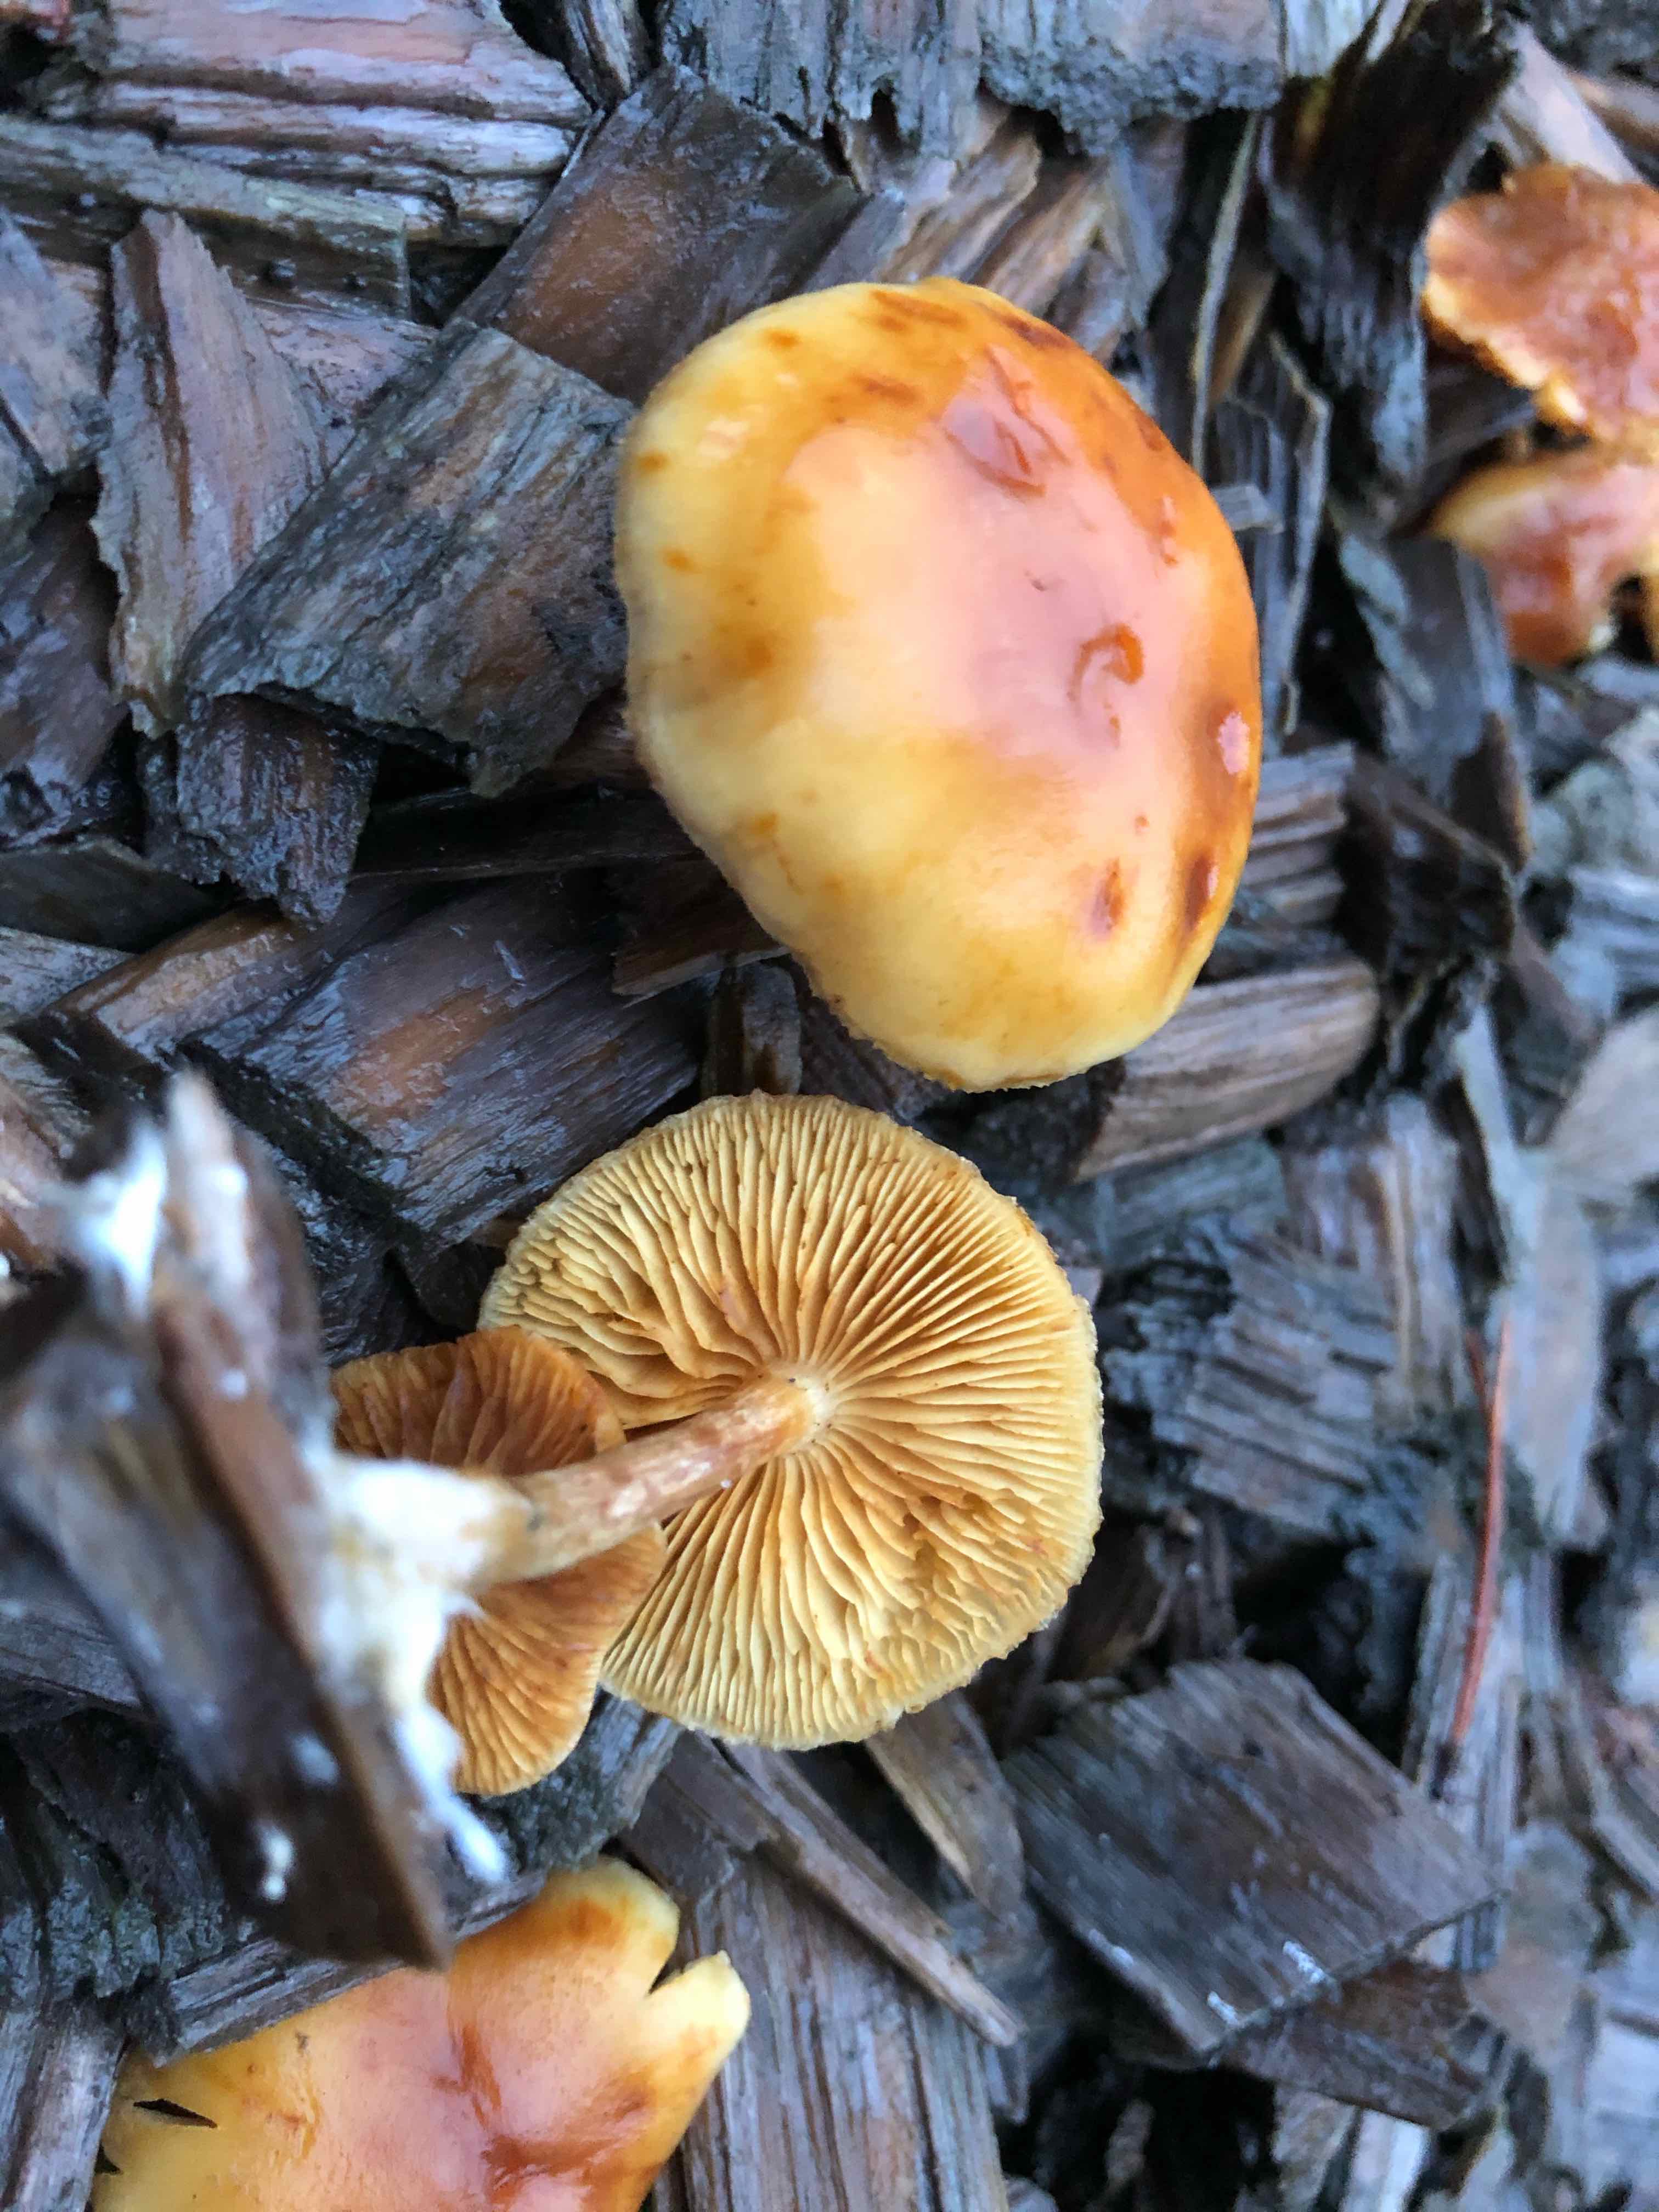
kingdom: Fungi
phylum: Basidiomycota
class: Agaricomycetes
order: Agaricales
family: Hymenogastraceae
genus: Gymnopilus
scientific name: Gymnopilus penetrans
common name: plettet flammehat
